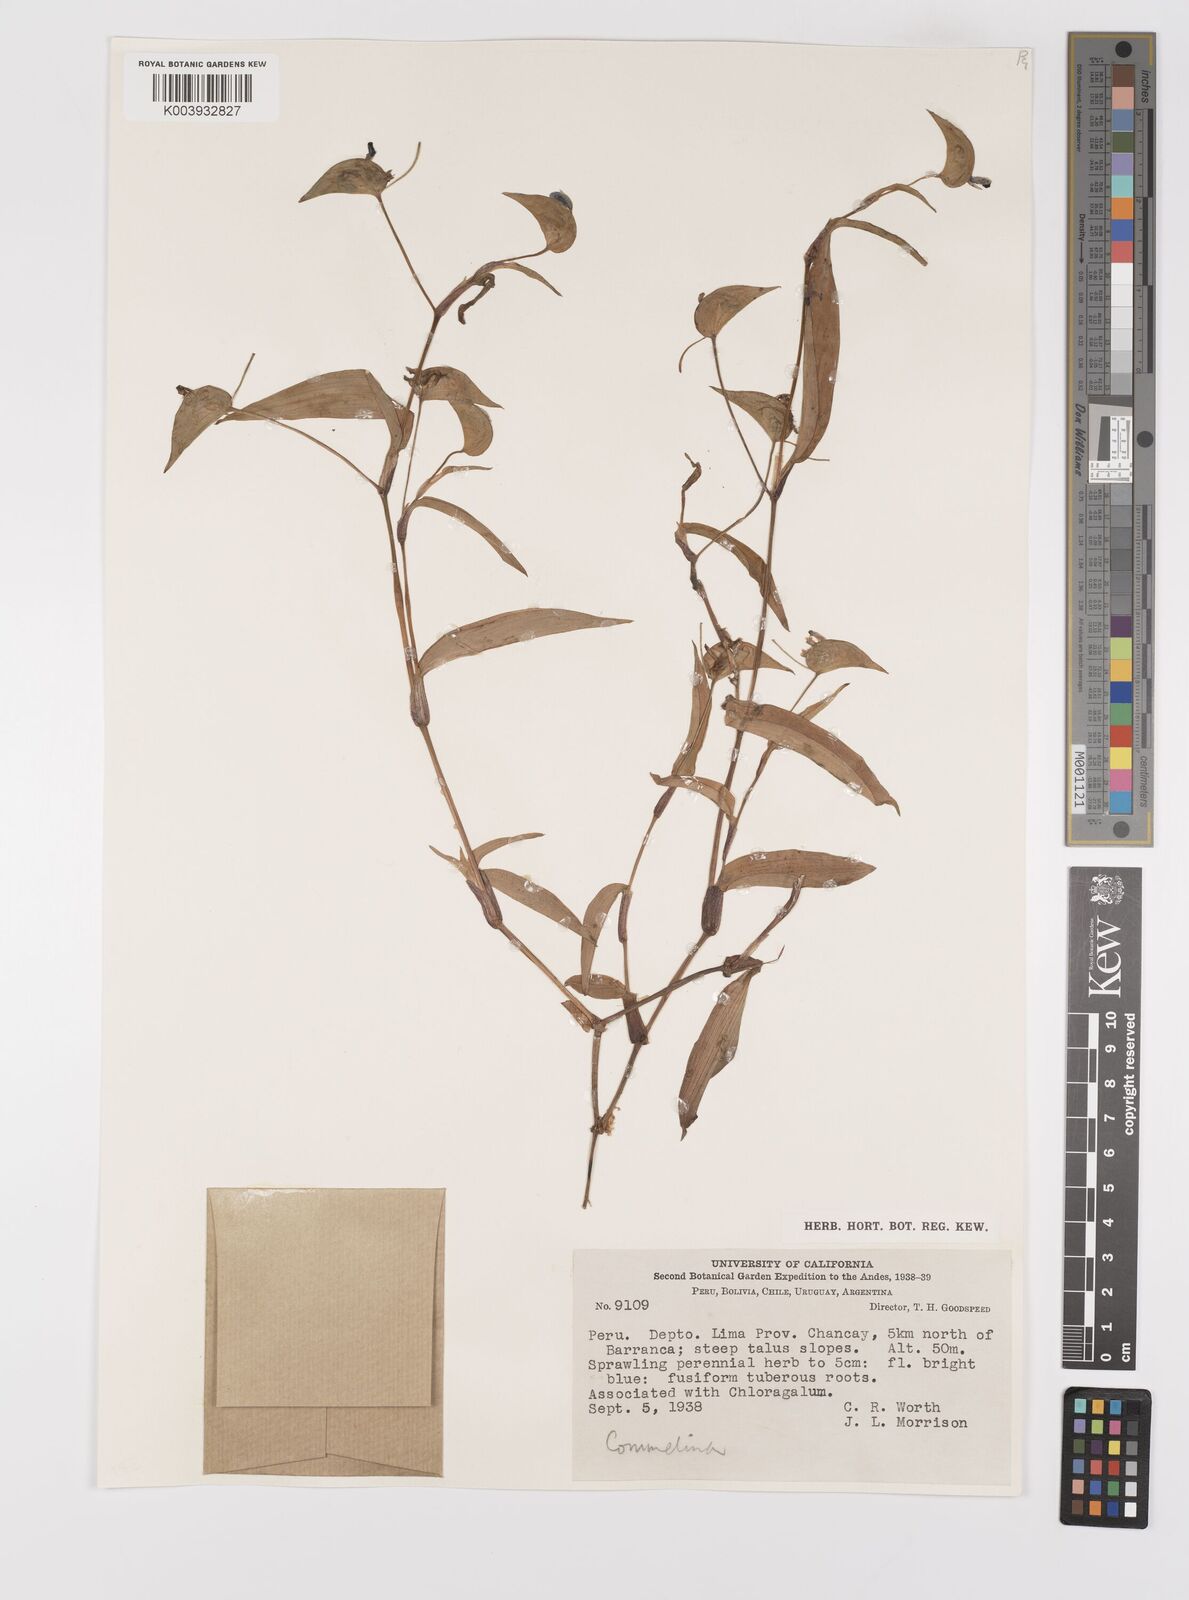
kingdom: Plantae
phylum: Tracheophyta
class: Liliopsida
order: Commelinales
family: Commelinaceae
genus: Commelina
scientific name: Commelina
